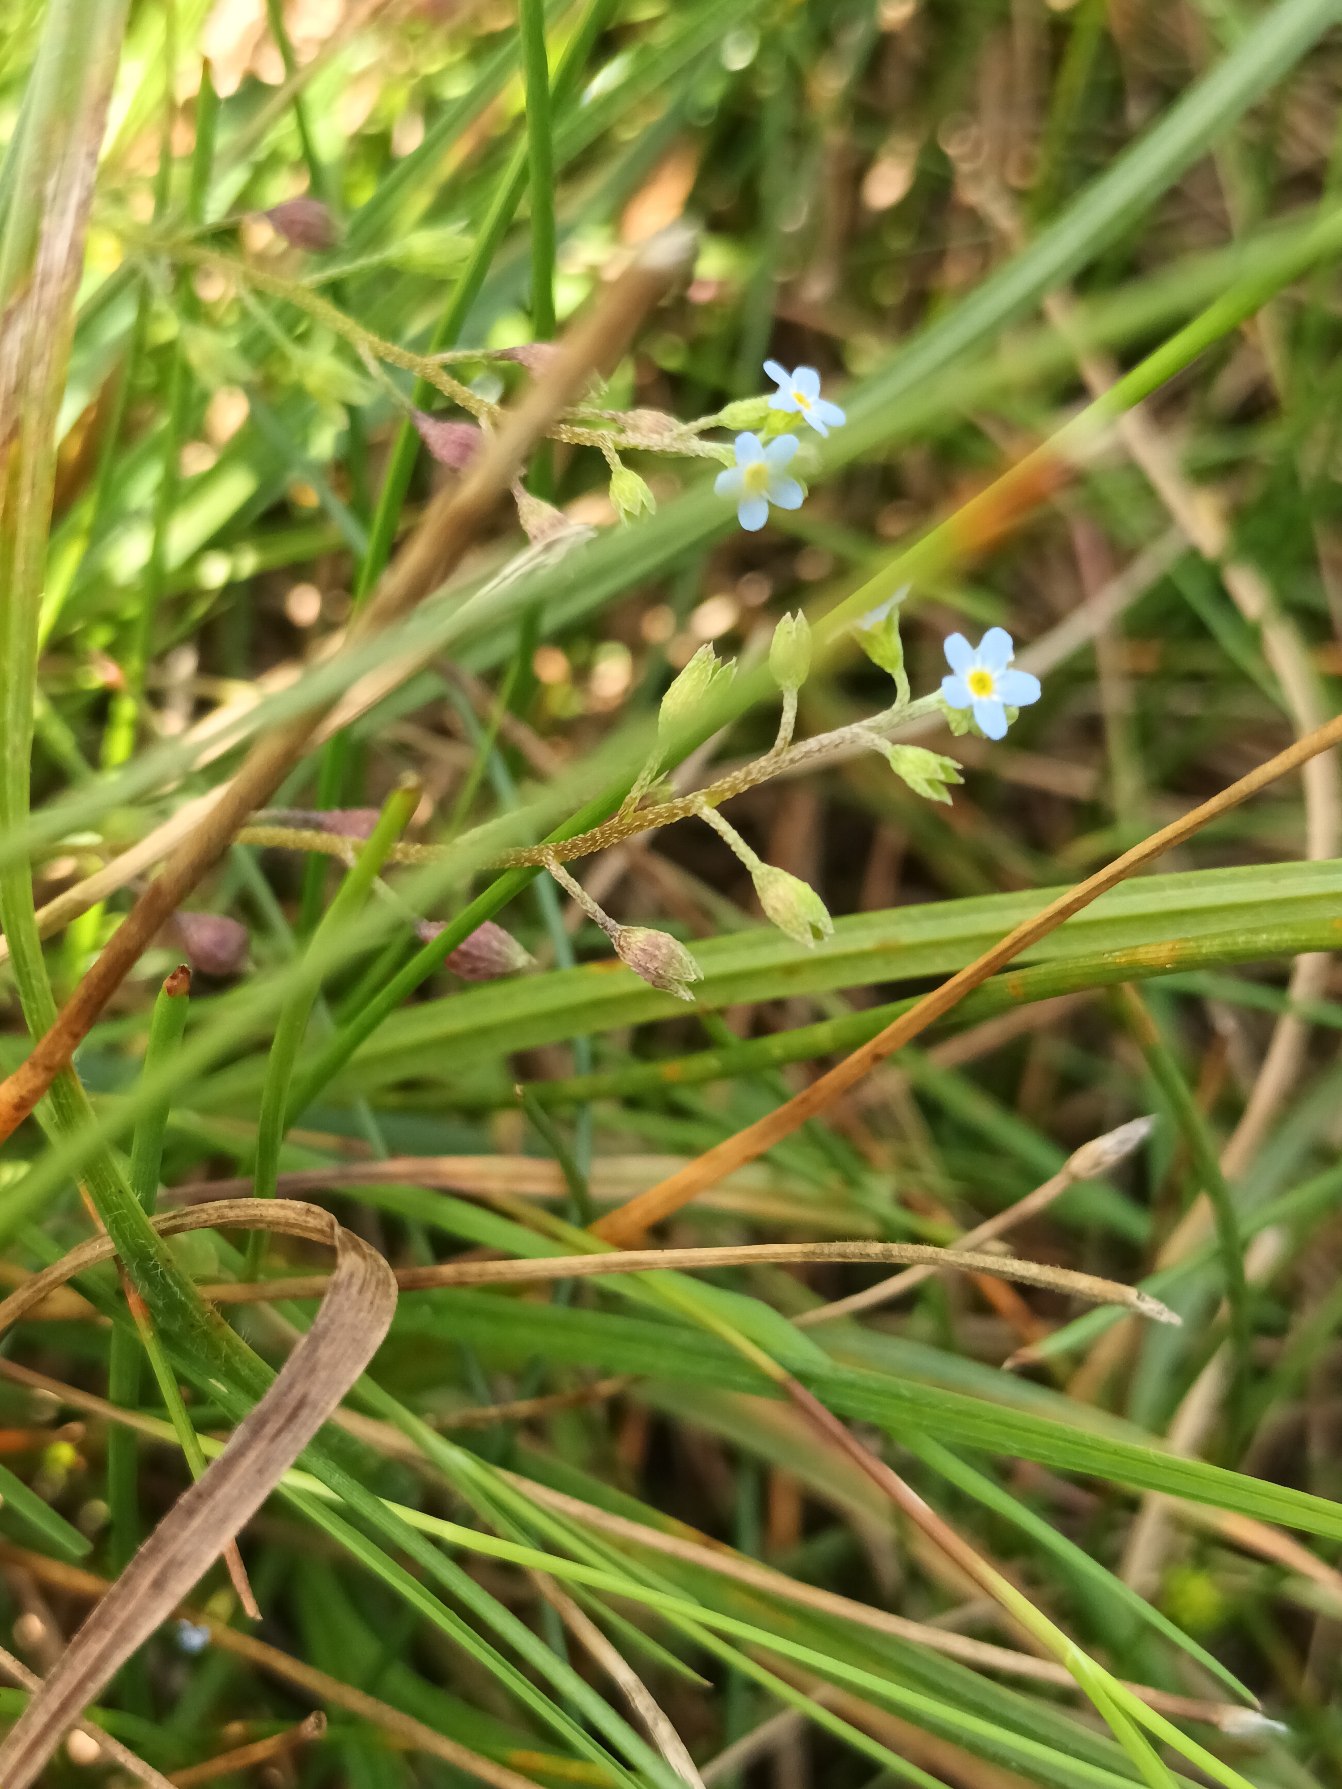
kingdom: Plantae
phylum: Tracheophyta
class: Magnoliopsida
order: Boraginales
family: Boraginaceae
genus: Myosotis
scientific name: Myosotis scorpioides
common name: Eng-forglemmigej
